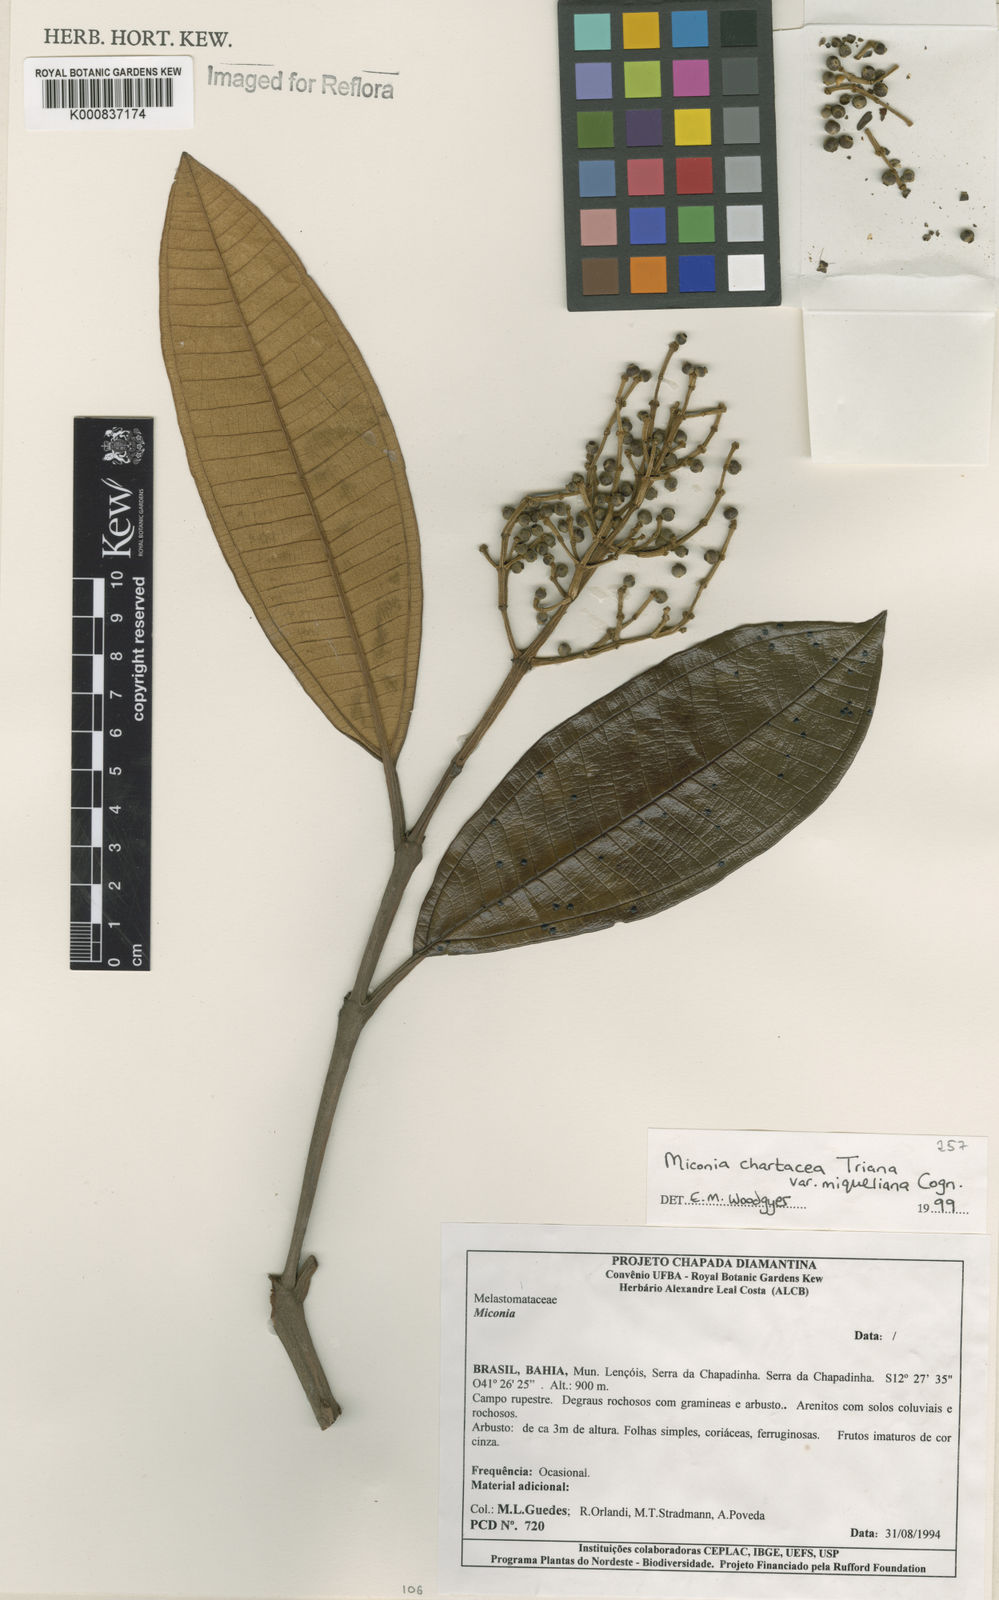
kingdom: Plantae
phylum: Tracheophyta
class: Magnoliopsida
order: Myrtales
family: Melastomataceae
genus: Miconia
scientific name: Miconia chartacea
